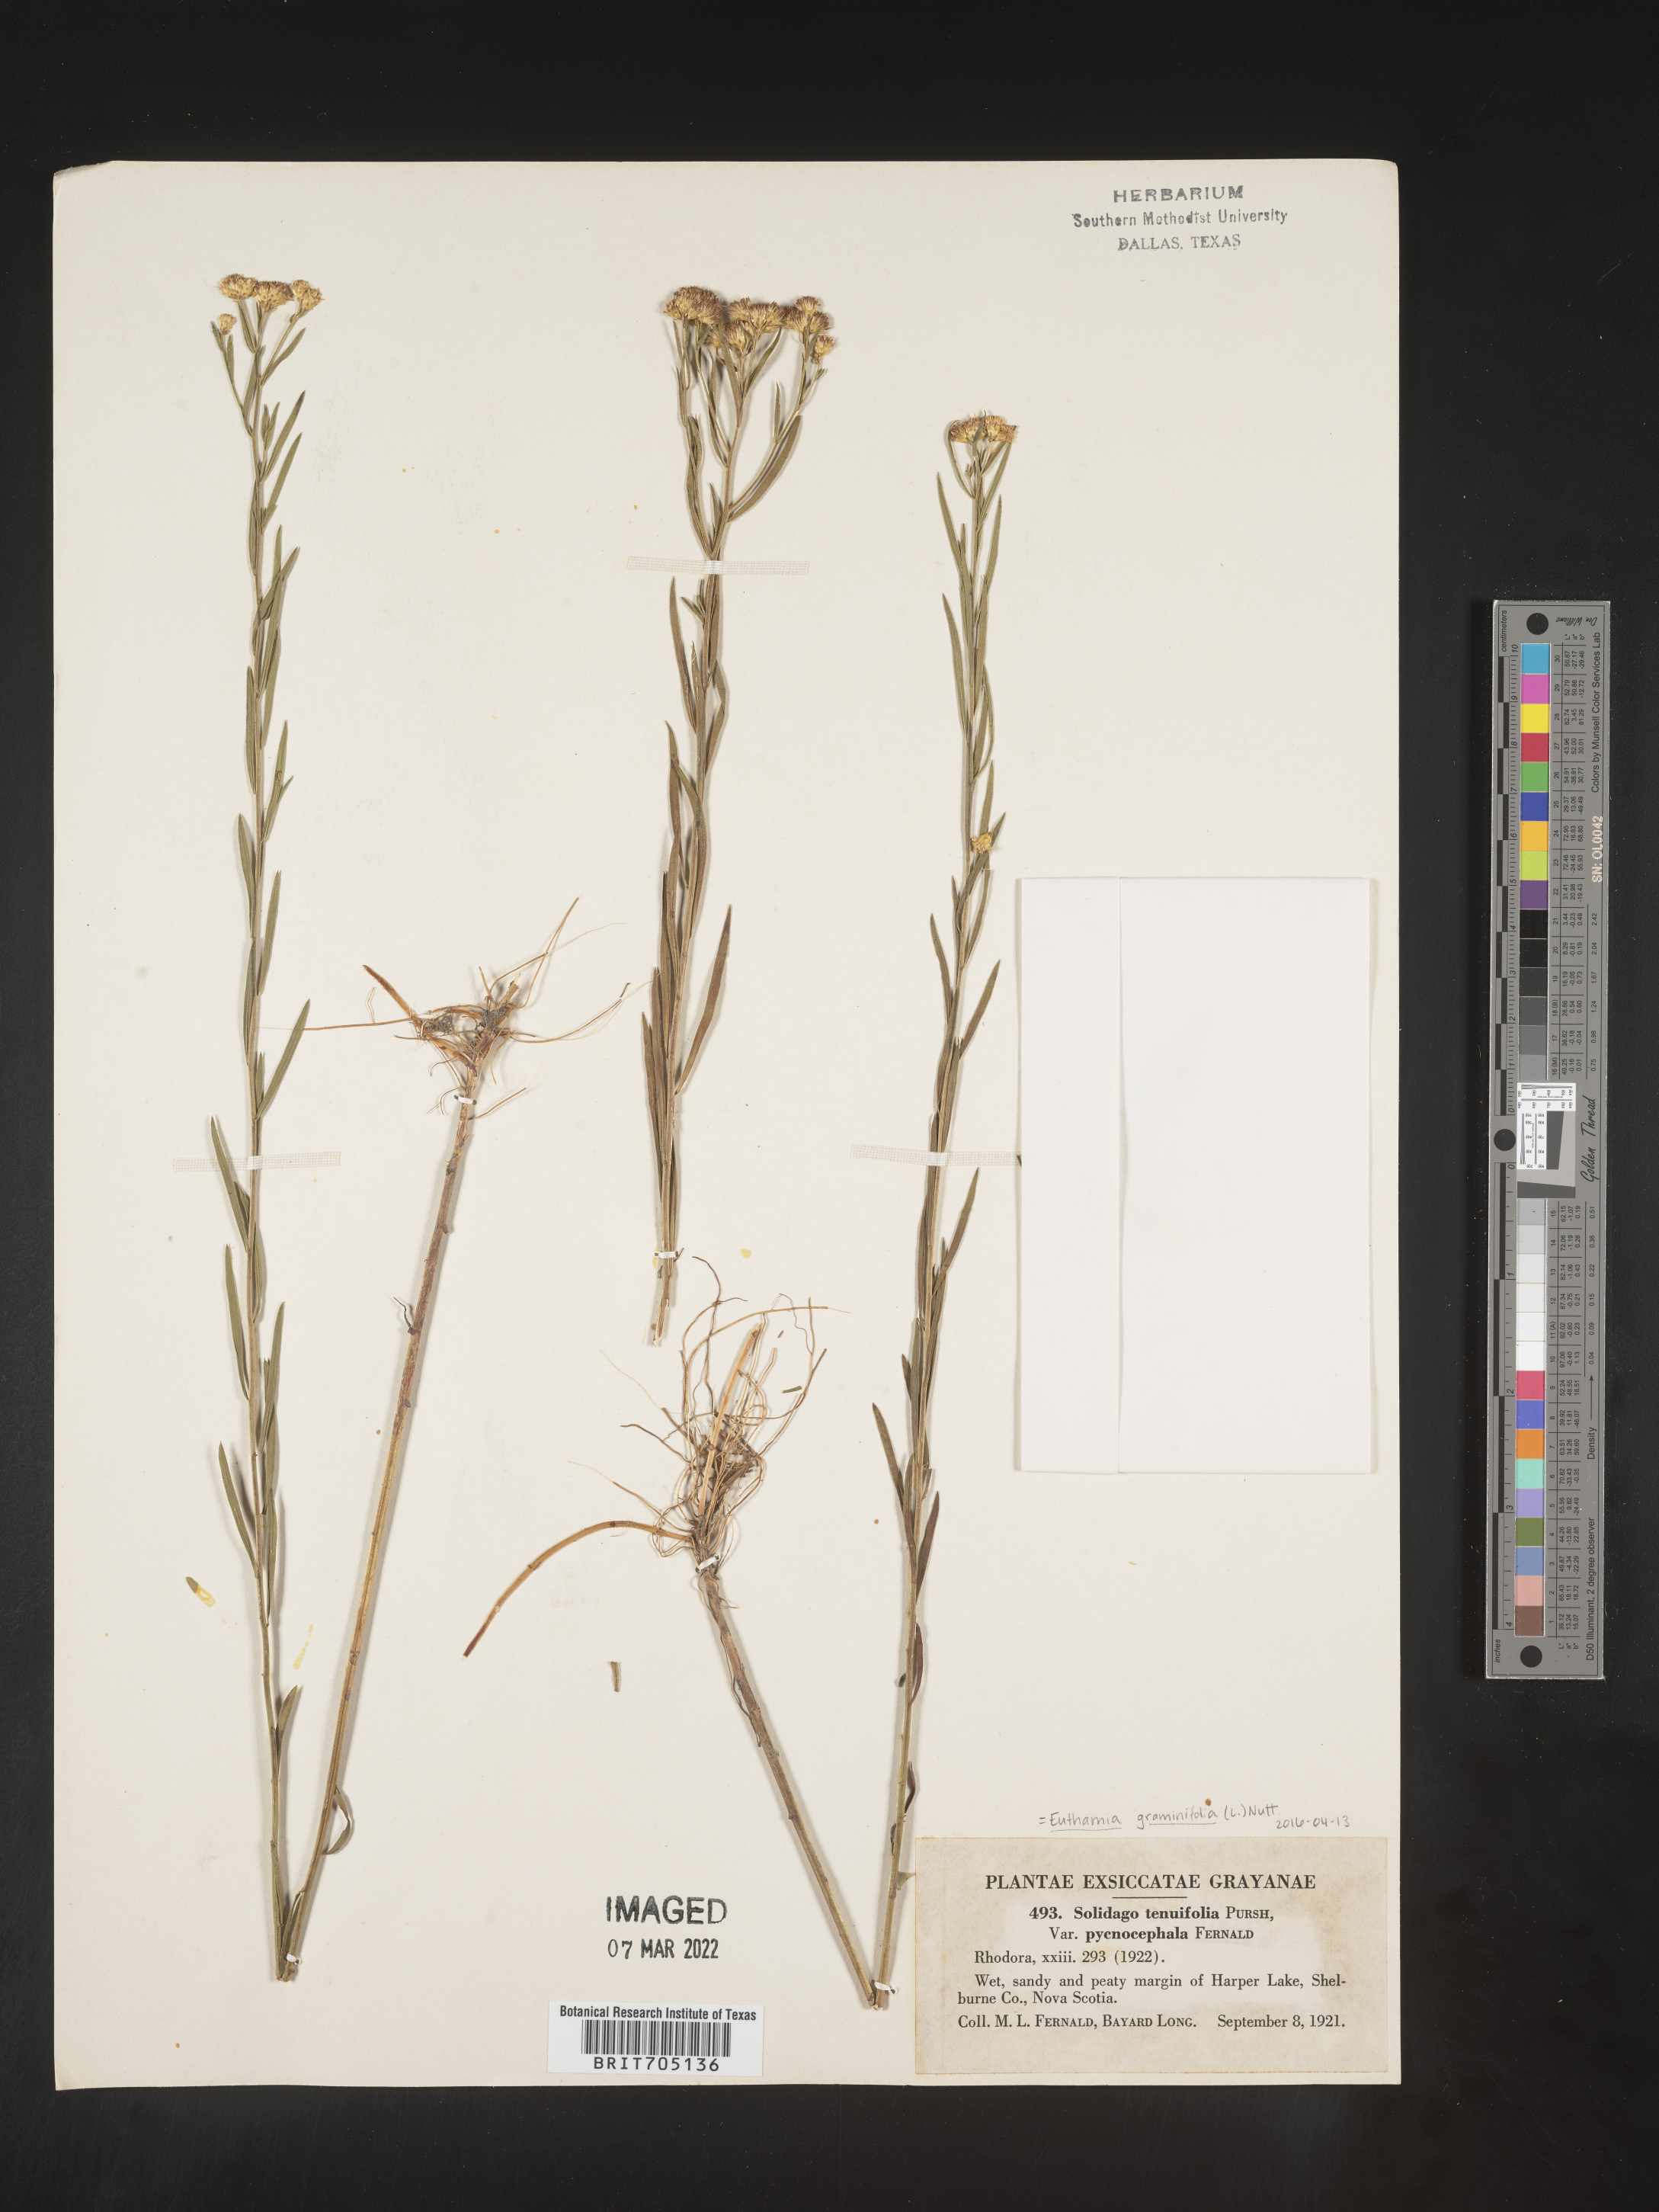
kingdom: Plantae
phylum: Tracheophyta
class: Magnoliopsida
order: Asterales
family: Asteraceae
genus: Euthamia
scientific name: Euthamia graminifolia
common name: Common goldentop
